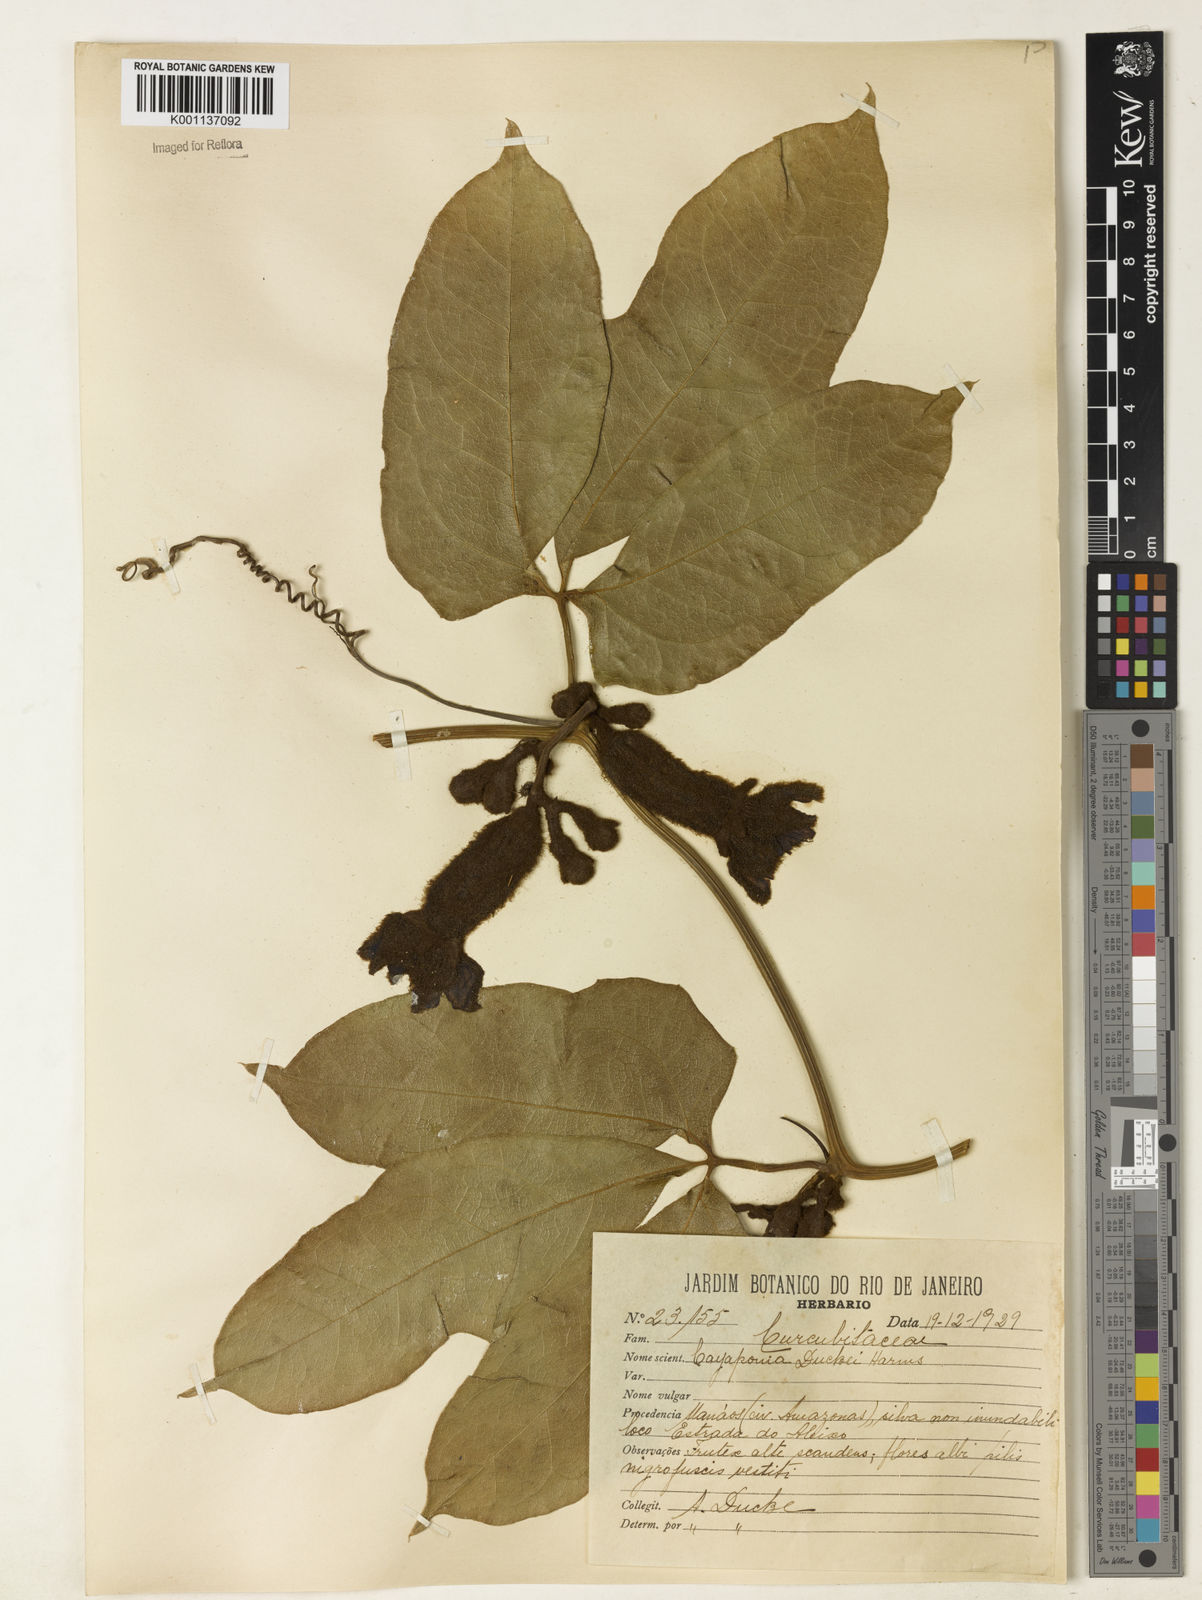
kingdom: Plantae
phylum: Tracheophyta
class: Magnoliopsida
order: Cucurbitales
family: Cucurbitaceae
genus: Cayaponia
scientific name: Cayaponia duckei
